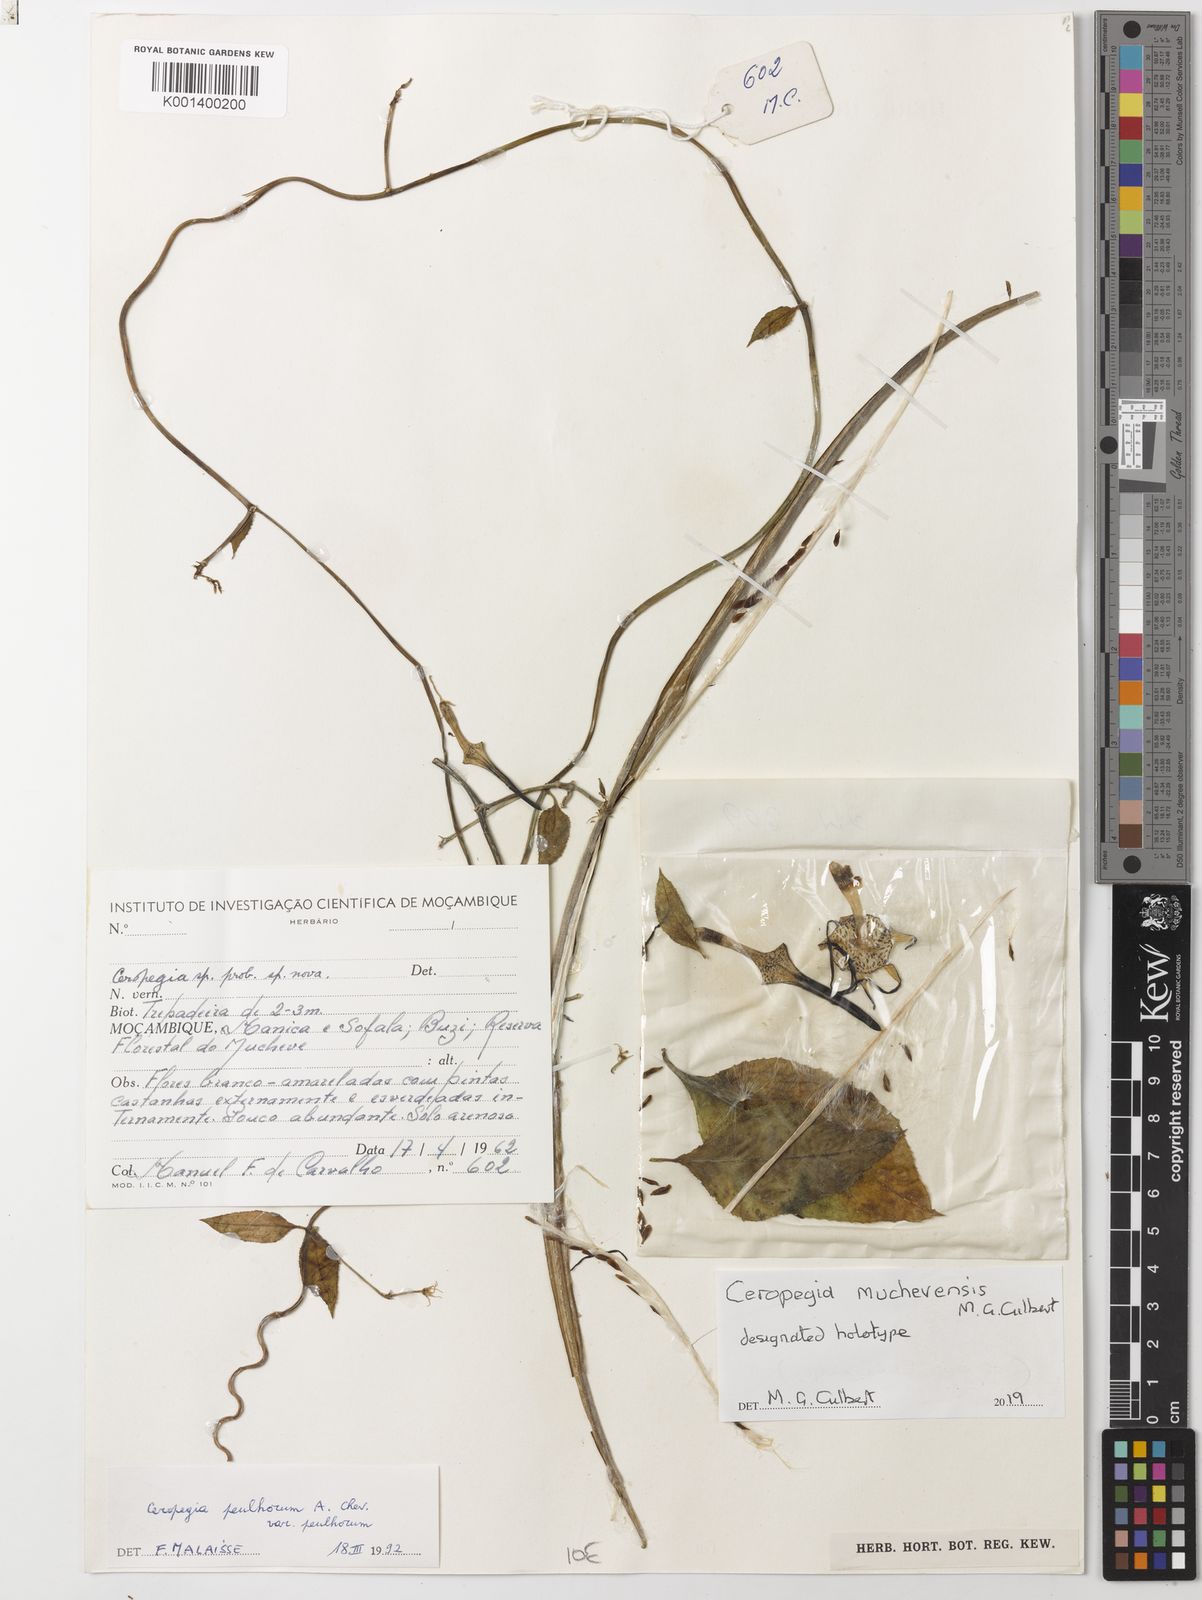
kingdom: Plantae
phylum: Tracheophyta
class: Magnoliopsida
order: Gentianales
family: Apocynaceae
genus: Ceropegia
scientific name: Ceropegia
